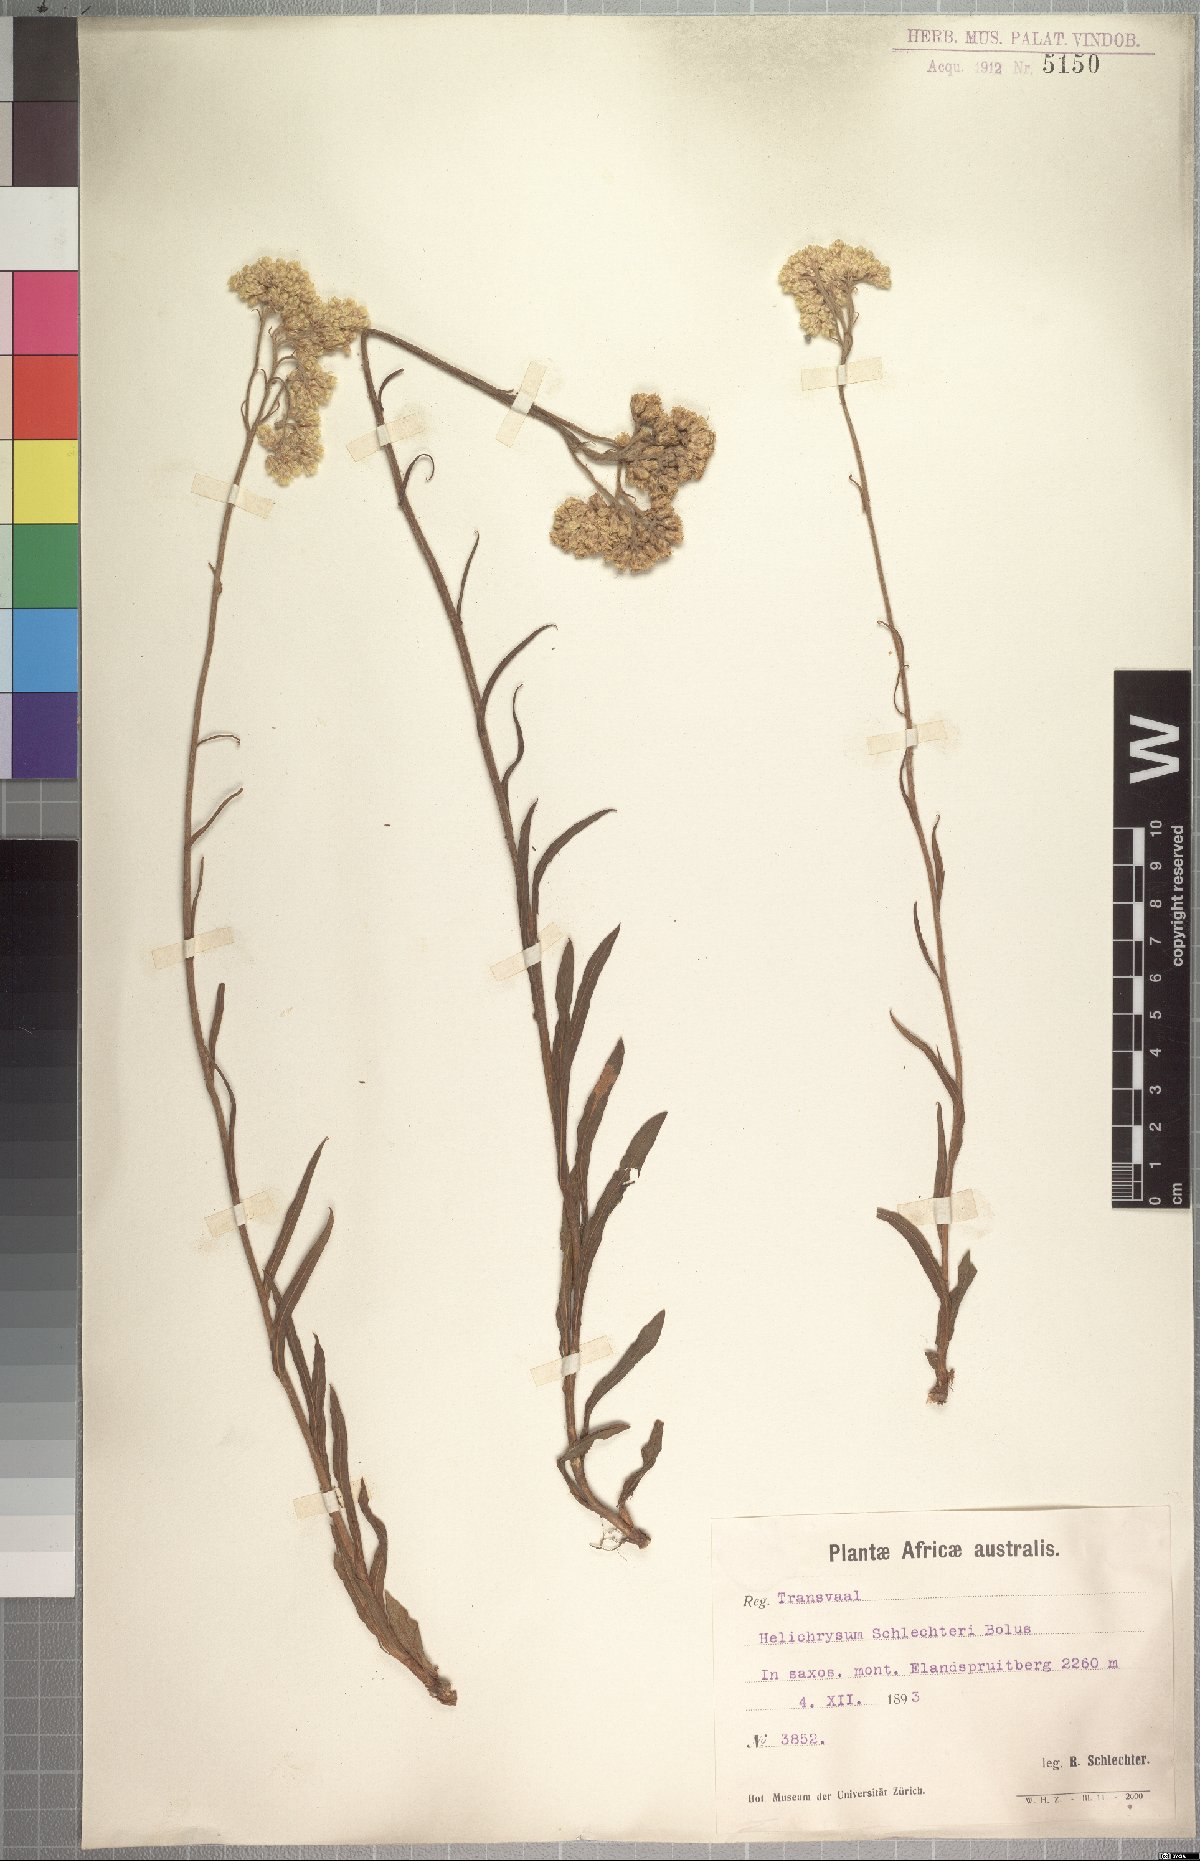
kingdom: Plantae
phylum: Tracheophyta
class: Magnoliopsida
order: Asterales
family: Asteraceae
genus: Helichrysum
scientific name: Helichrysum acutatum
